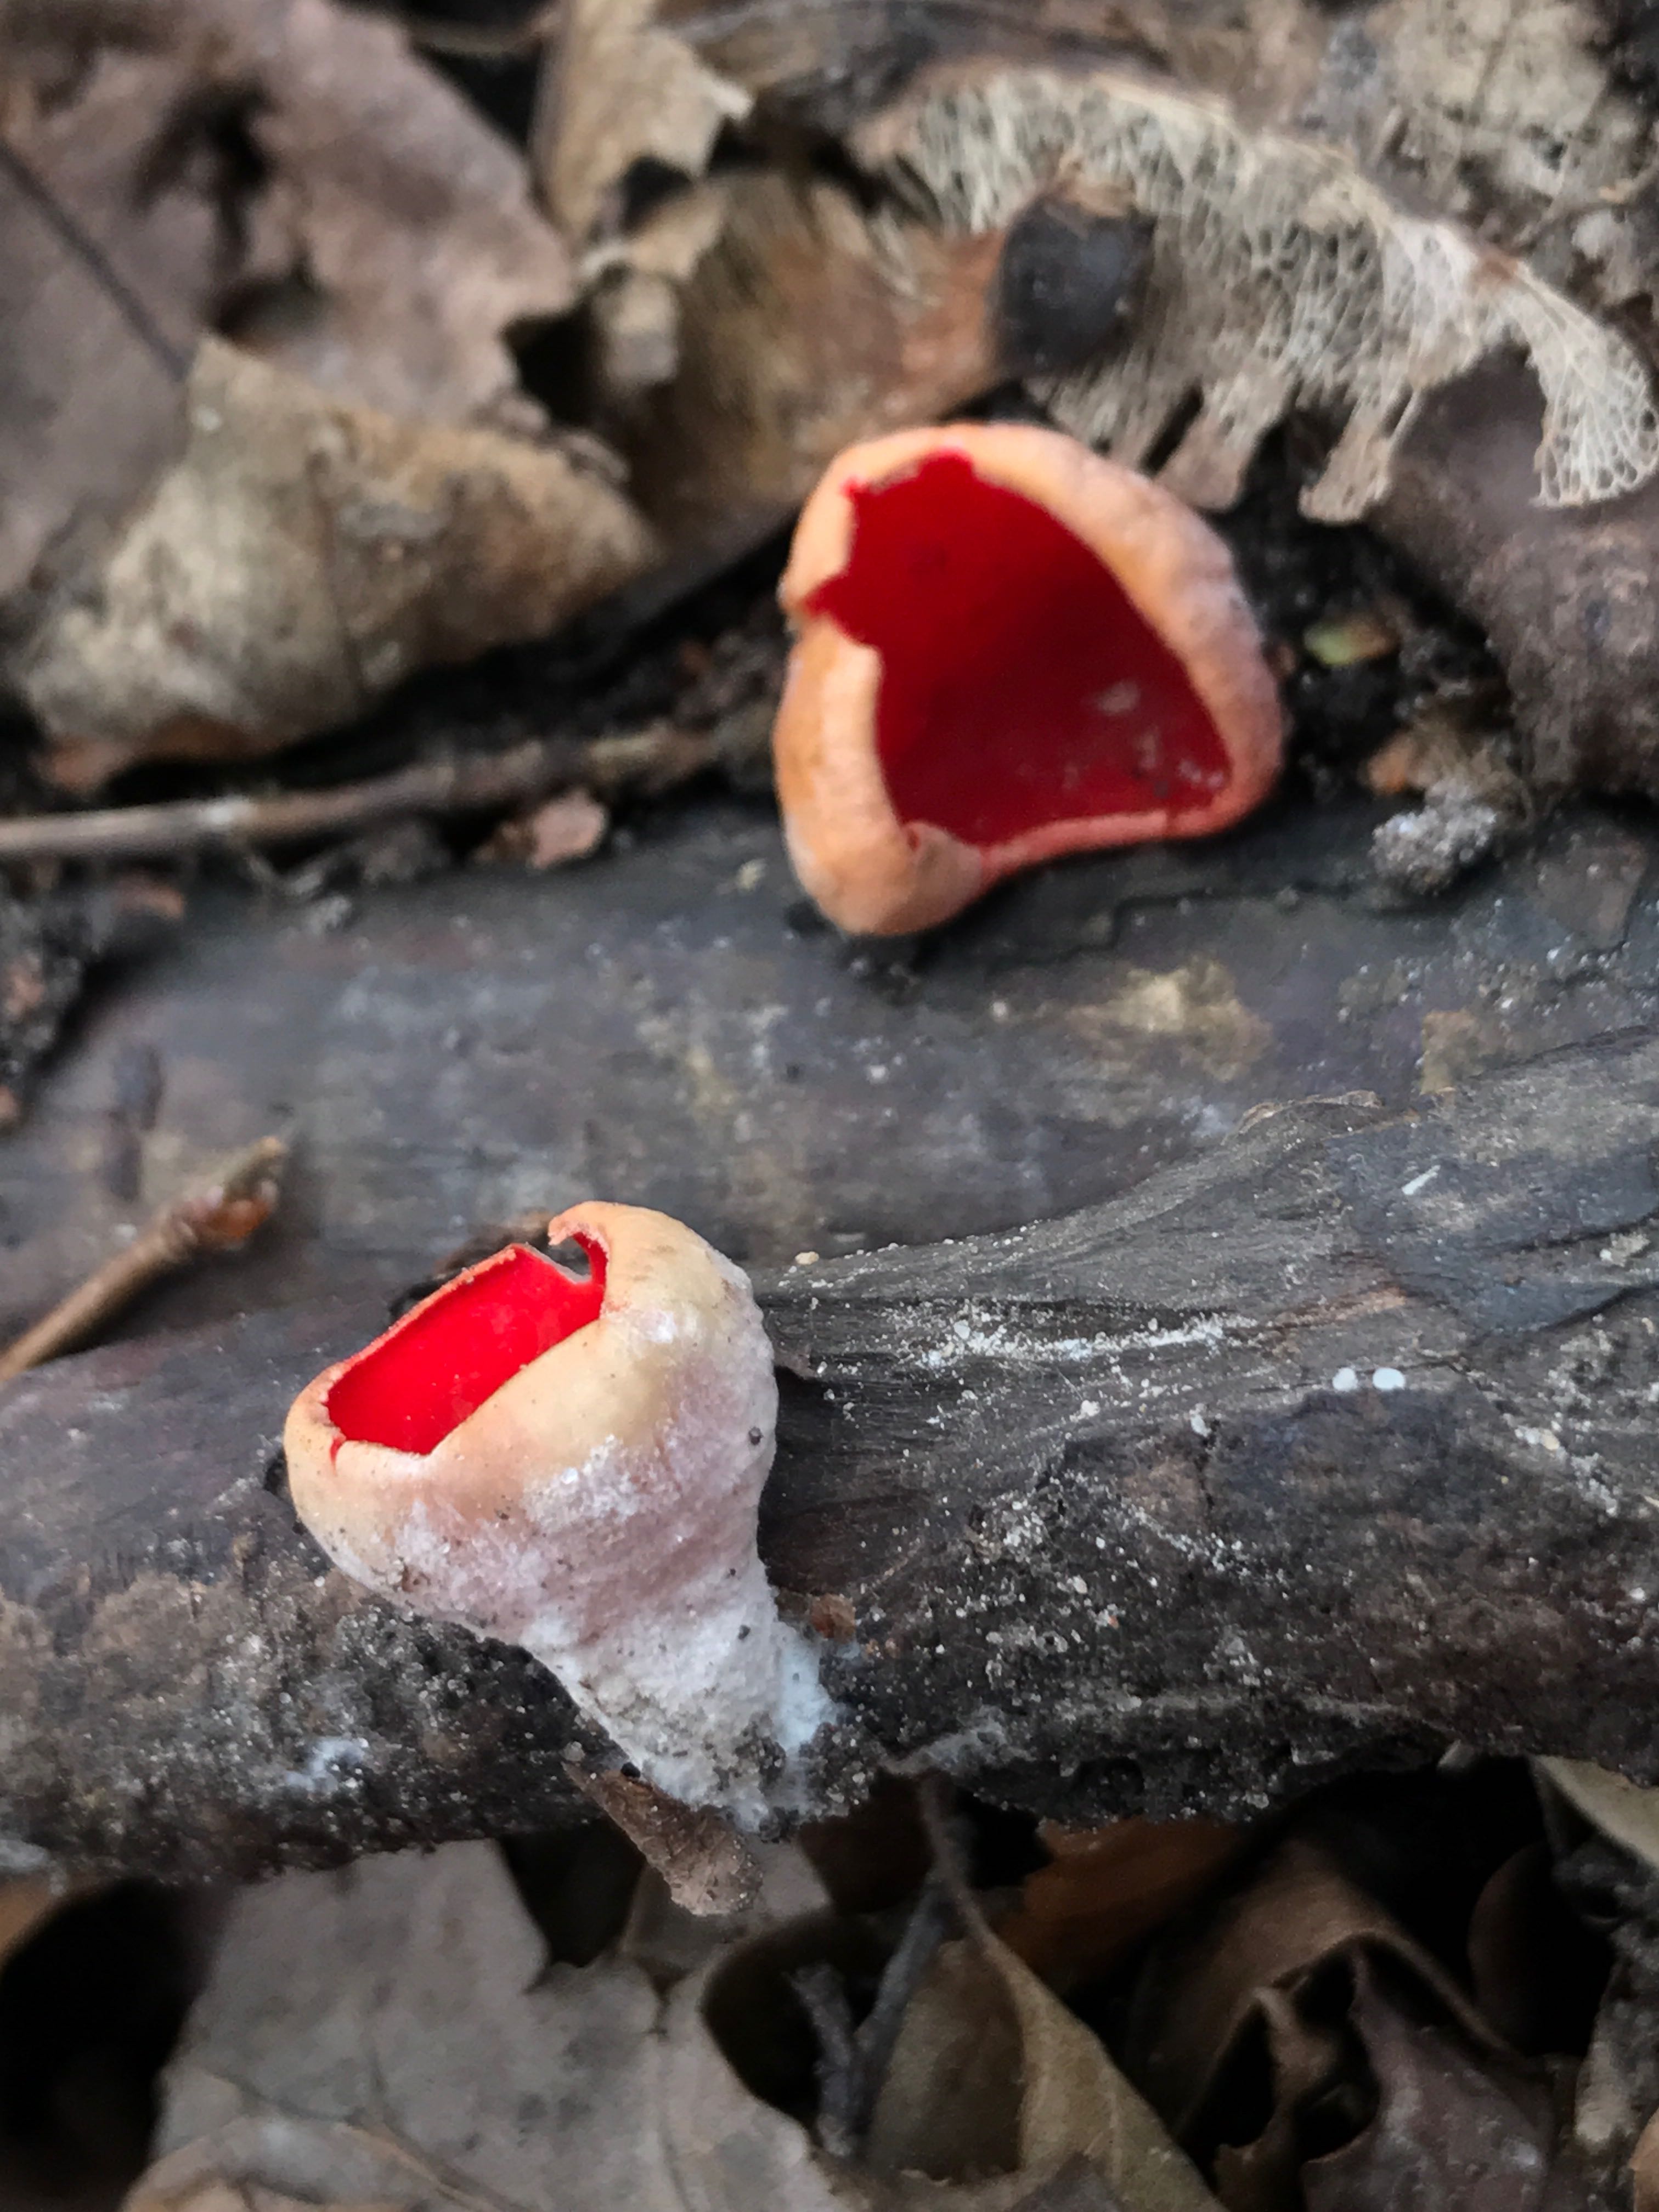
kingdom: Fungi
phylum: Ascomycota
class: Pezizomycetes
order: Pezizales
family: Sarcoscyphaceae
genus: Sarcoscypha
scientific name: Sarcoscypha austriaca
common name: krølhåret pragtbæger
